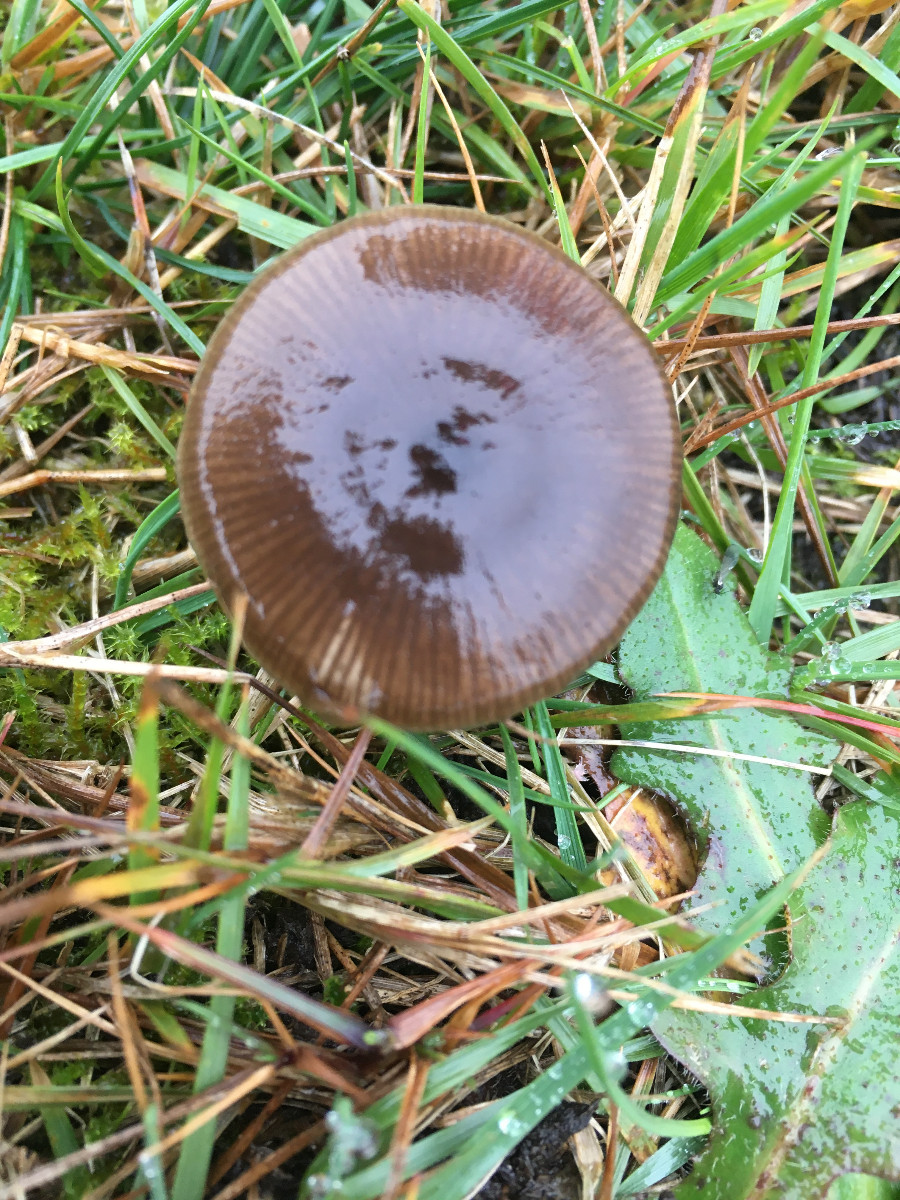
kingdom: Fungi
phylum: Basidiomycota
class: Agaricomycetes
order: Agaricales
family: Entolomataceae
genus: Entoloma
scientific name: Entoloma
